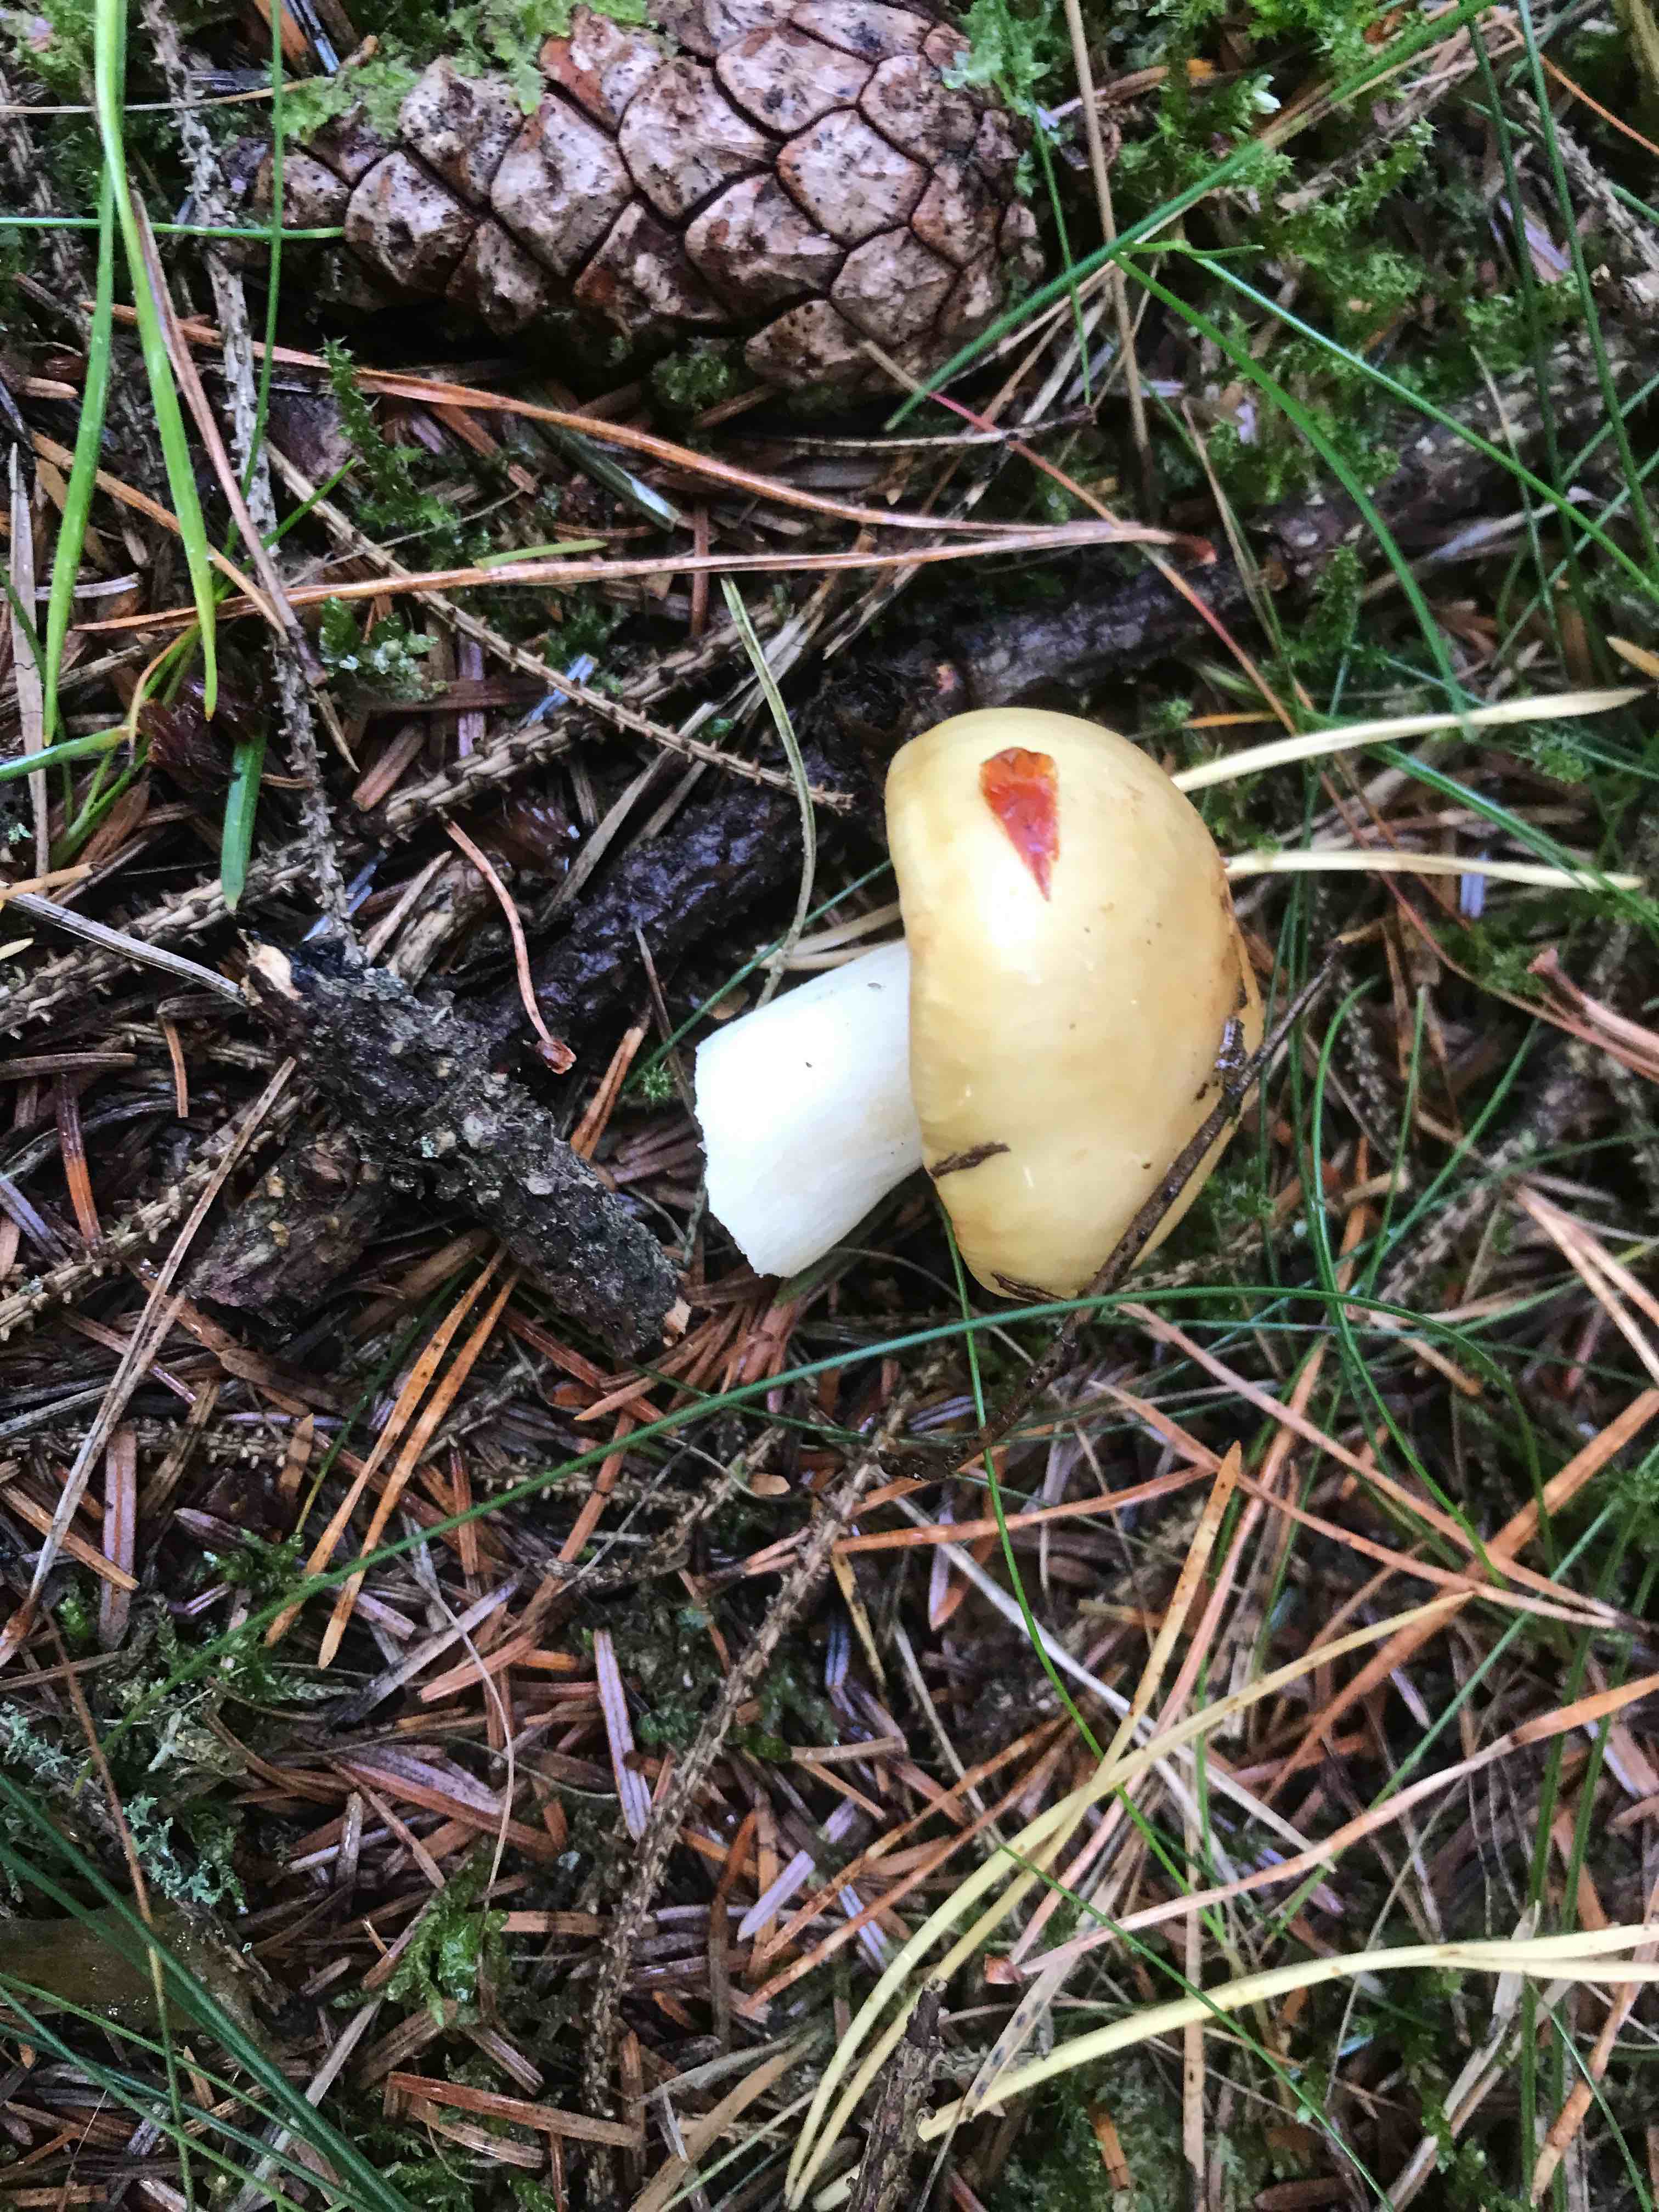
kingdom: Fungi
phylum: Basidiomycota
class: Agaricomycetes
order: Russulales
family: Russulaceae
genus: Russula
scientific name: Russula ochroleuca
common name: okkergul skørhat
